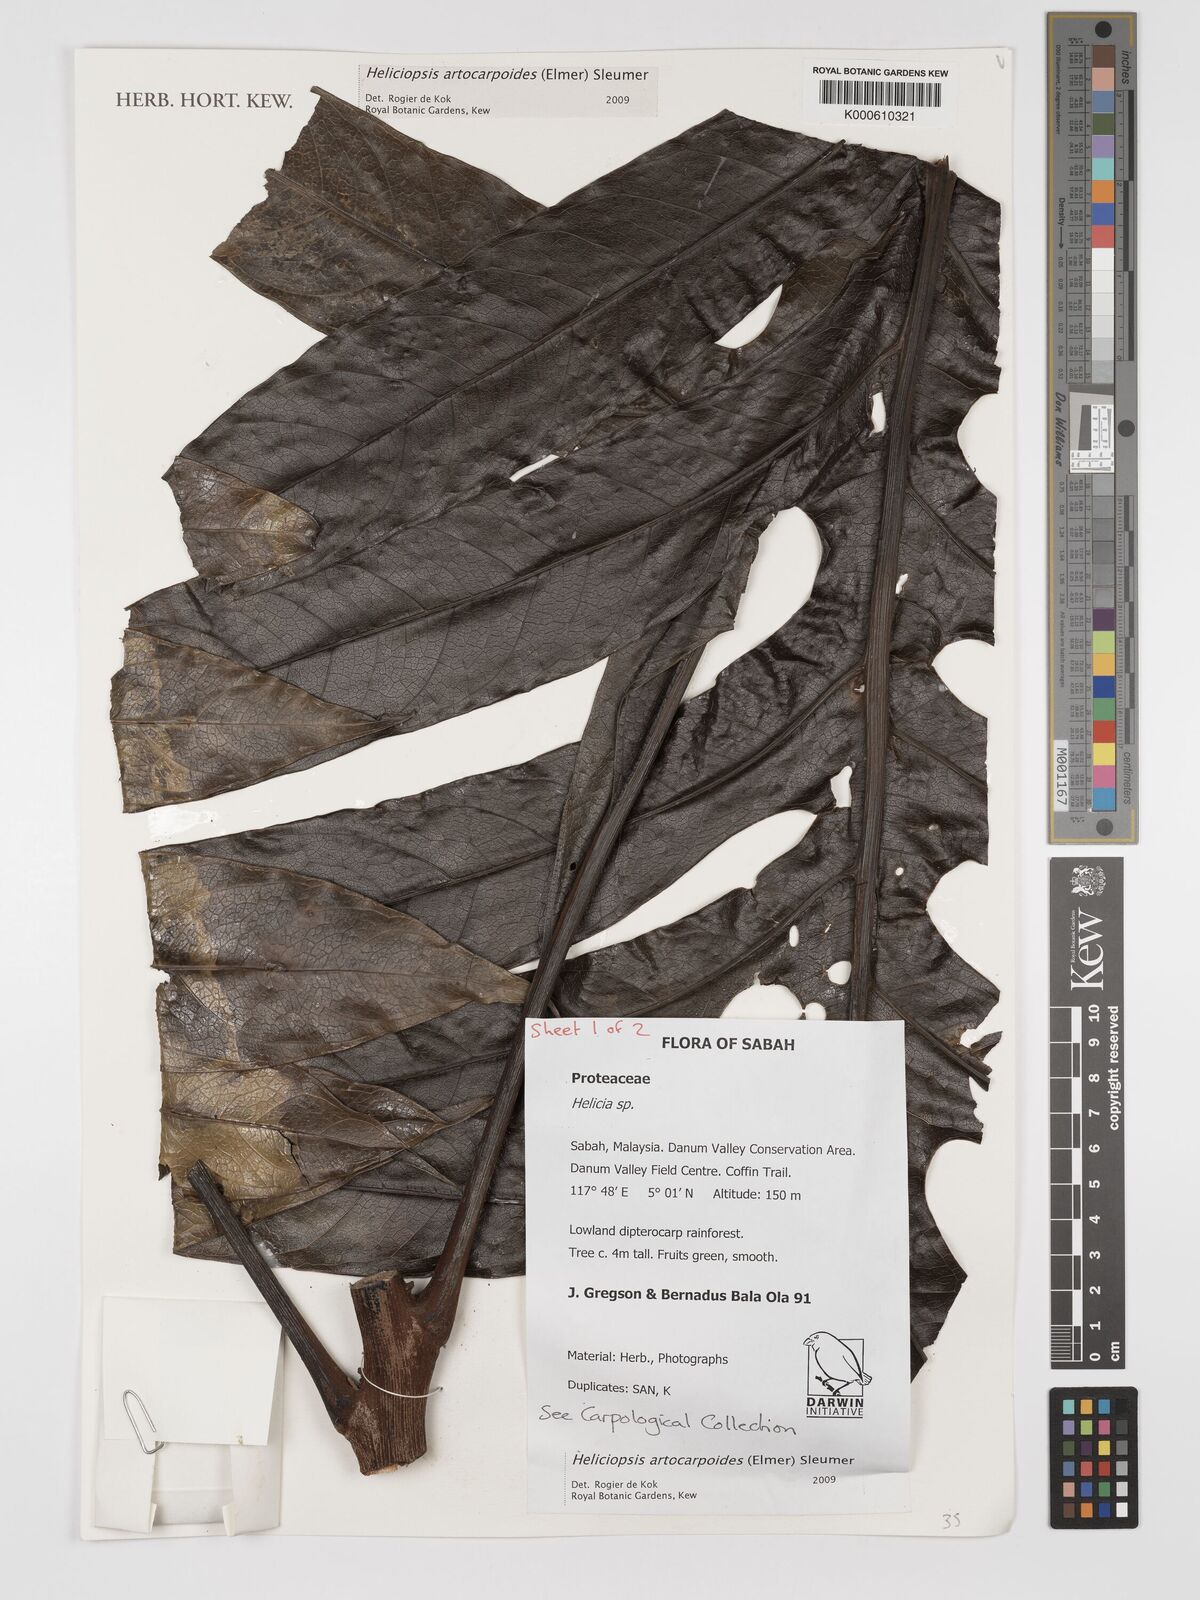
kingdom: Plantae
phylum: Tracheophyta
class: Magnoliopsida
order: Proteales
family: Proteaceae
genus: Heliciopsis
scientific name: Heliciopsis artocarpoides
